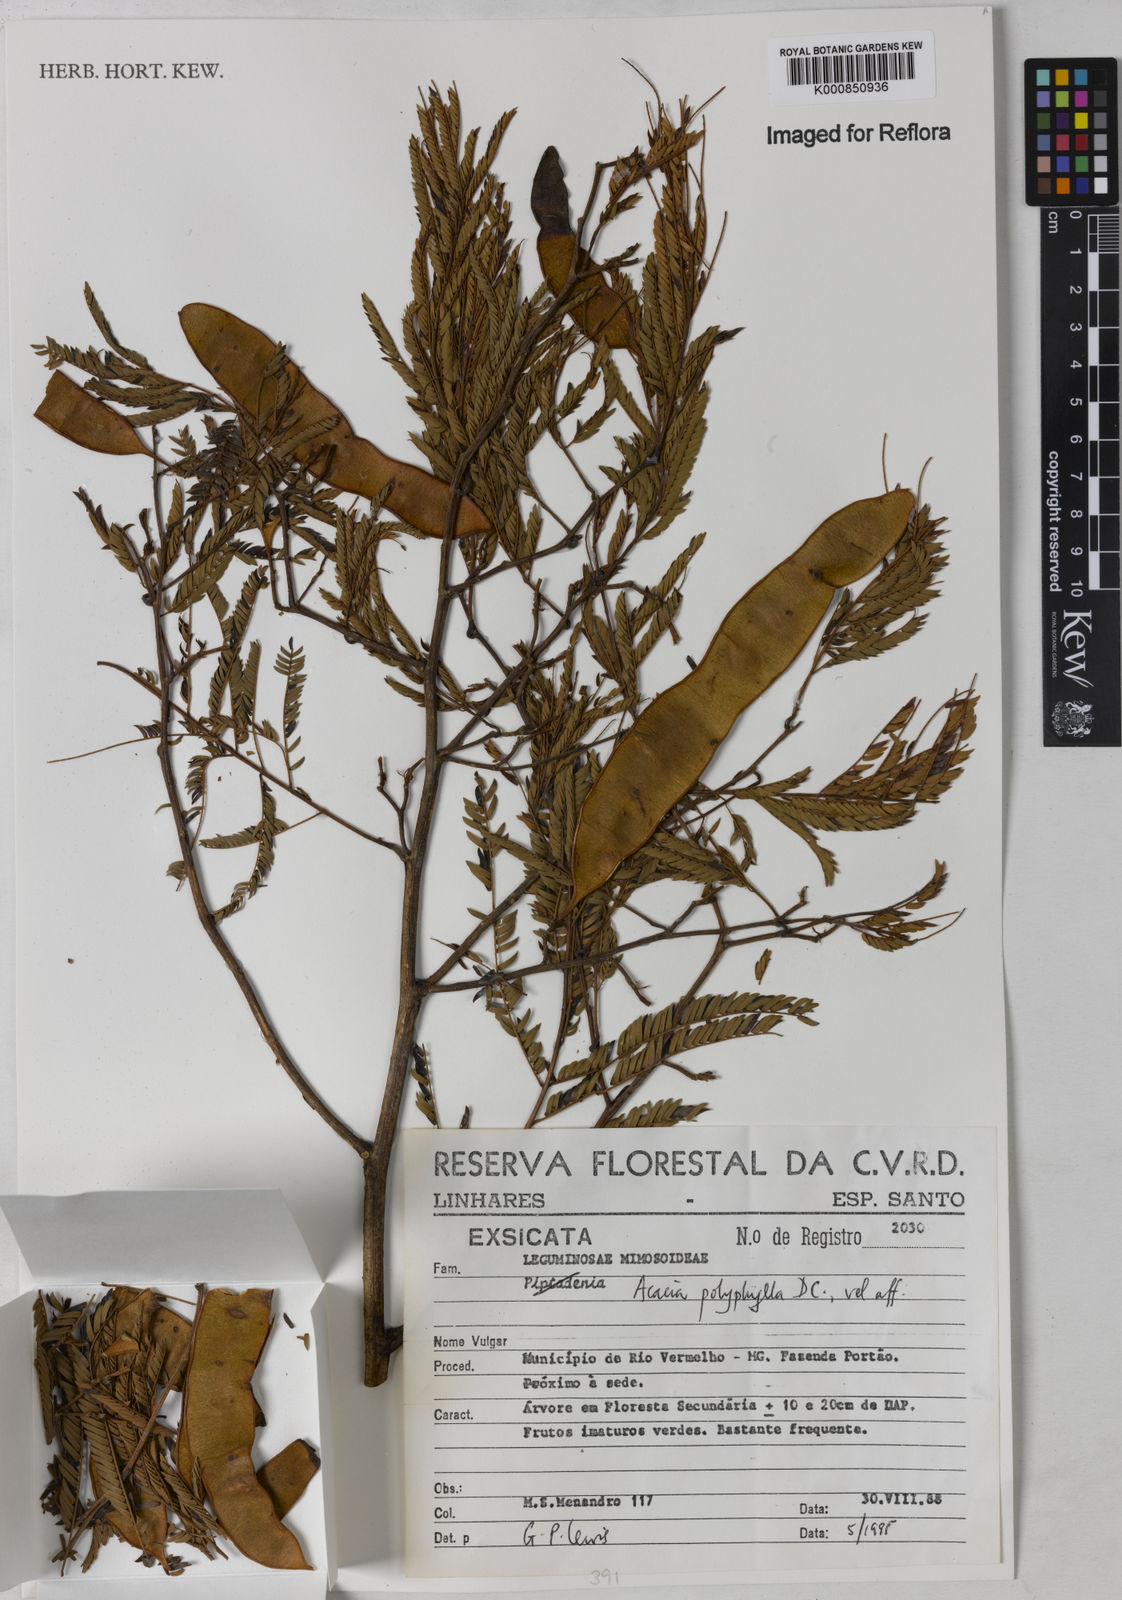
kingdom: Plantae
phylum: Tracheophyta
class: Magnoliopsida
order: Fabales
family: Fabaceae
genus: Senegalia
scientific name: Senegalia polyphylla
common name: White-tamarind
